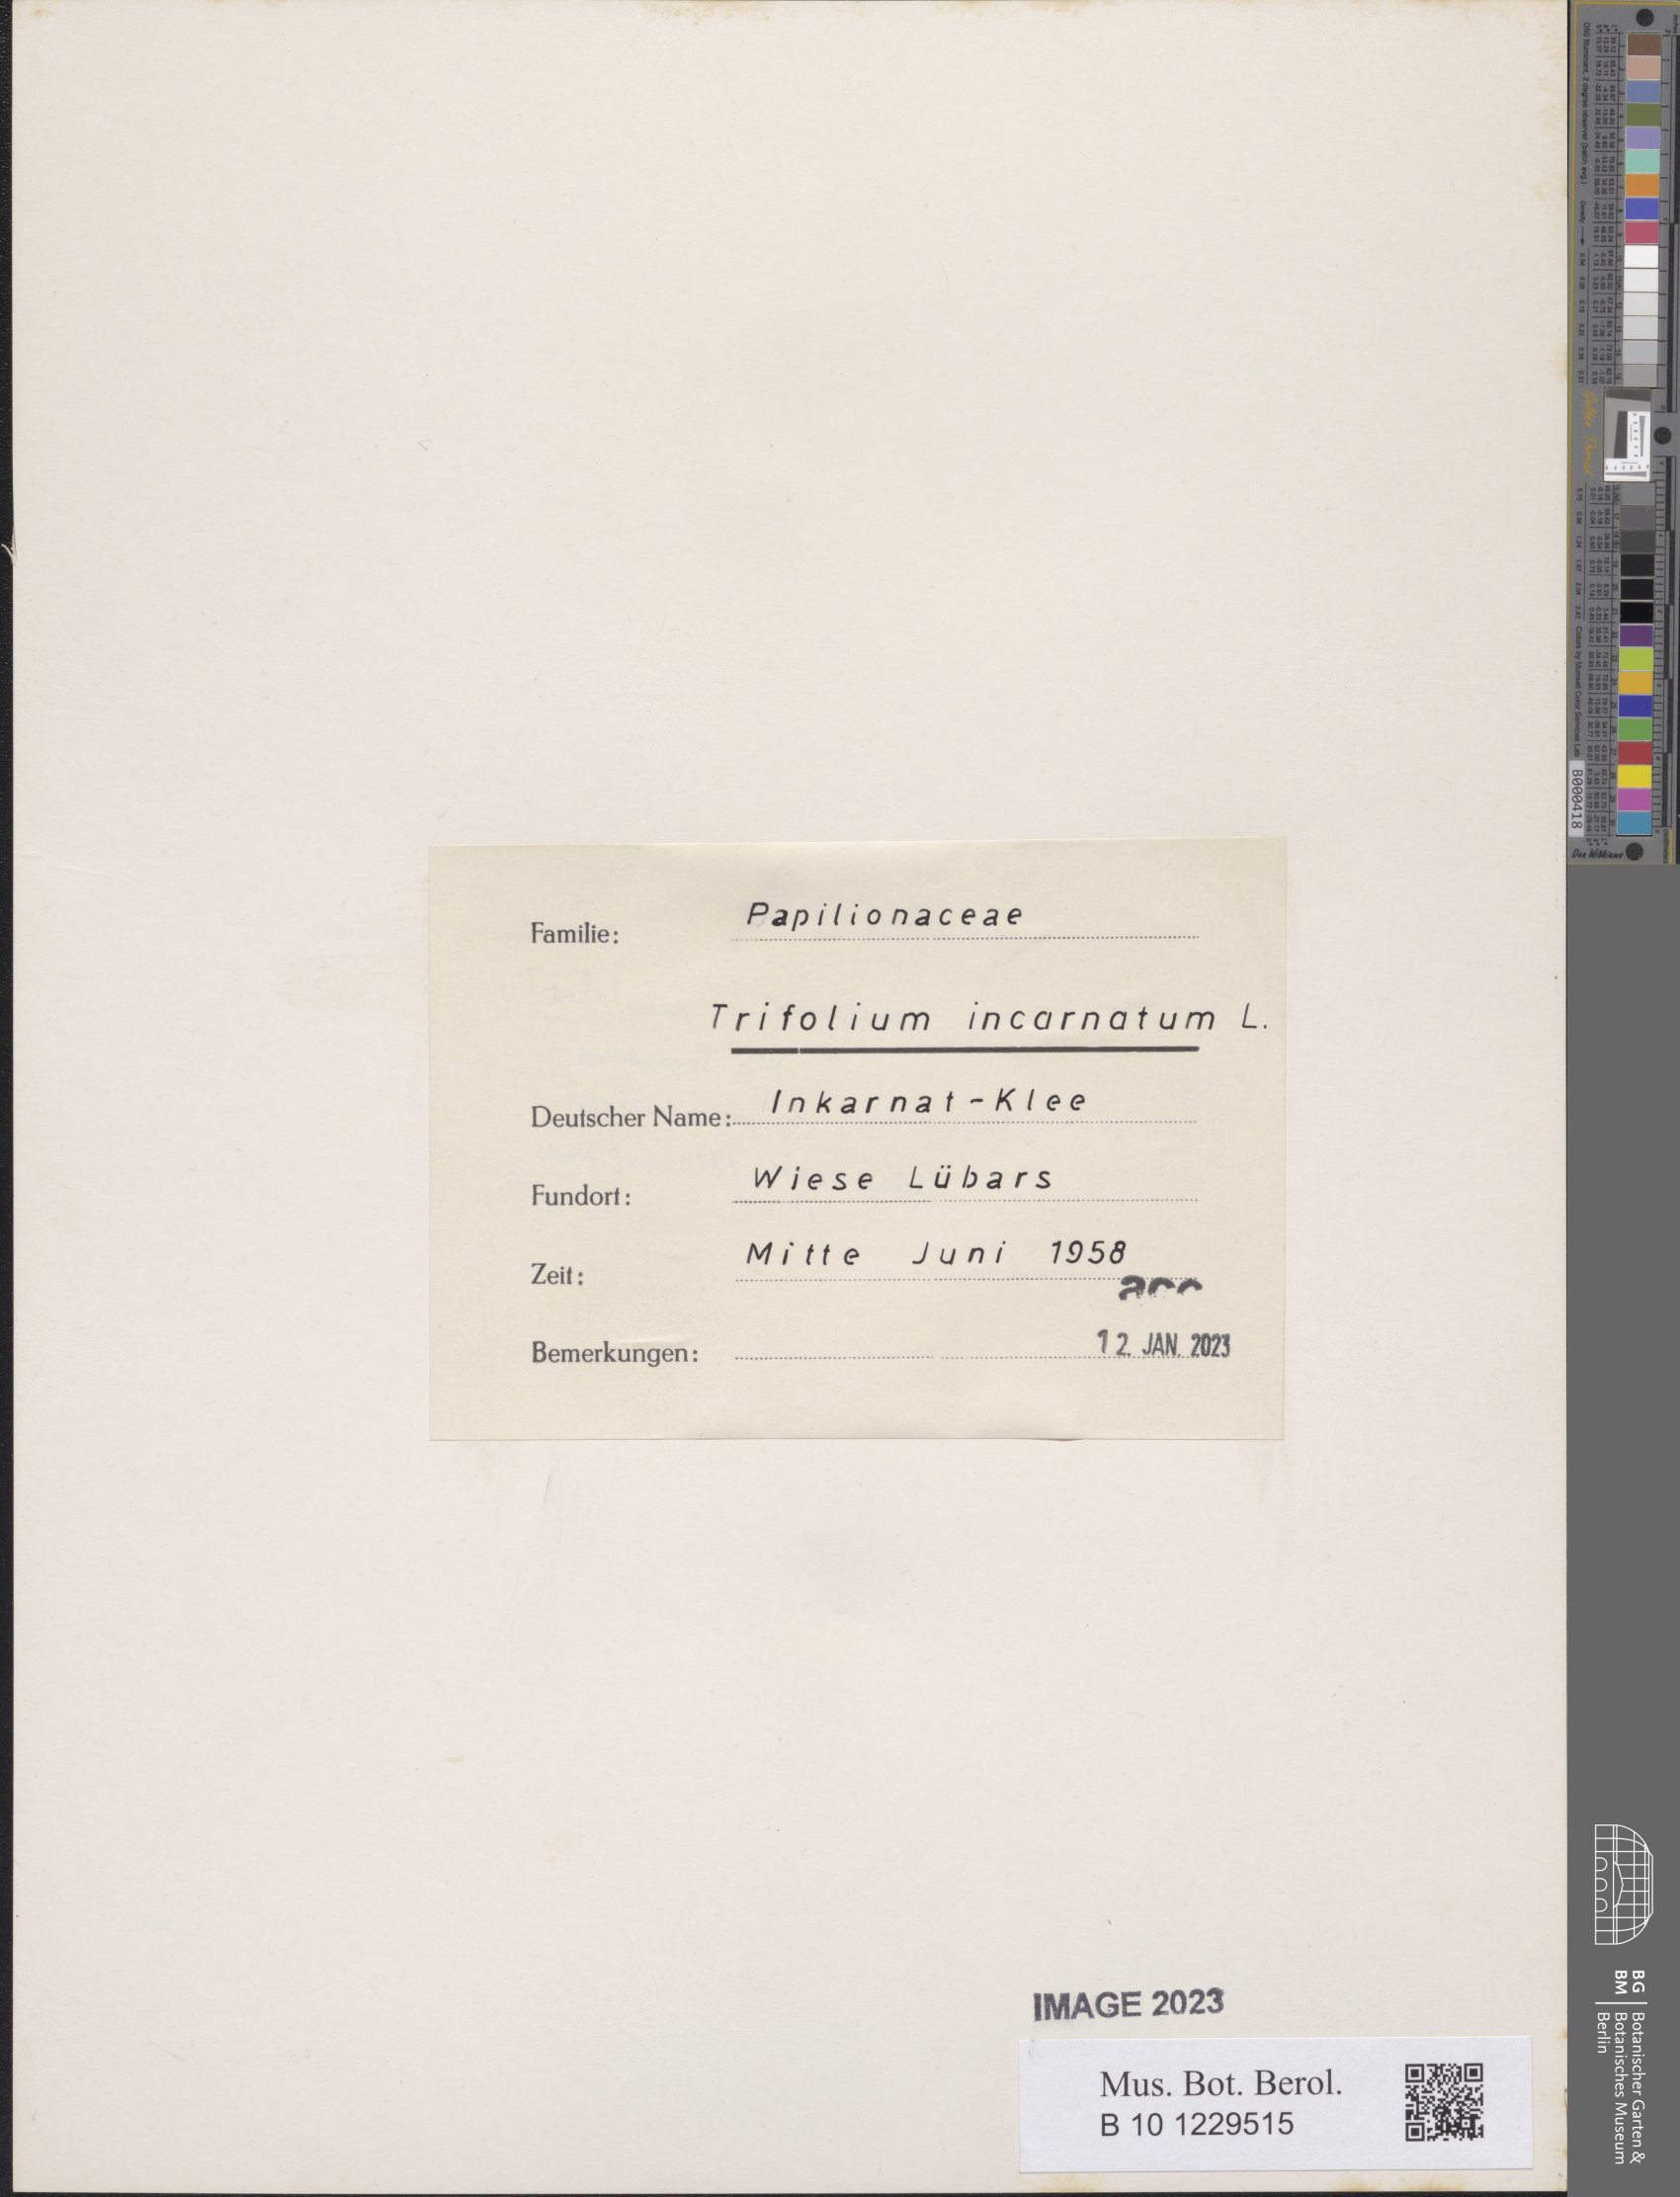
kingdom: Plantae
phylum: Tracheophyta
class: Magnoliopsida
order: Fabales
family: Fabaceae
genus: Trifolium
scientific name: Trifolium incarnatum
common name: Crimson clover
